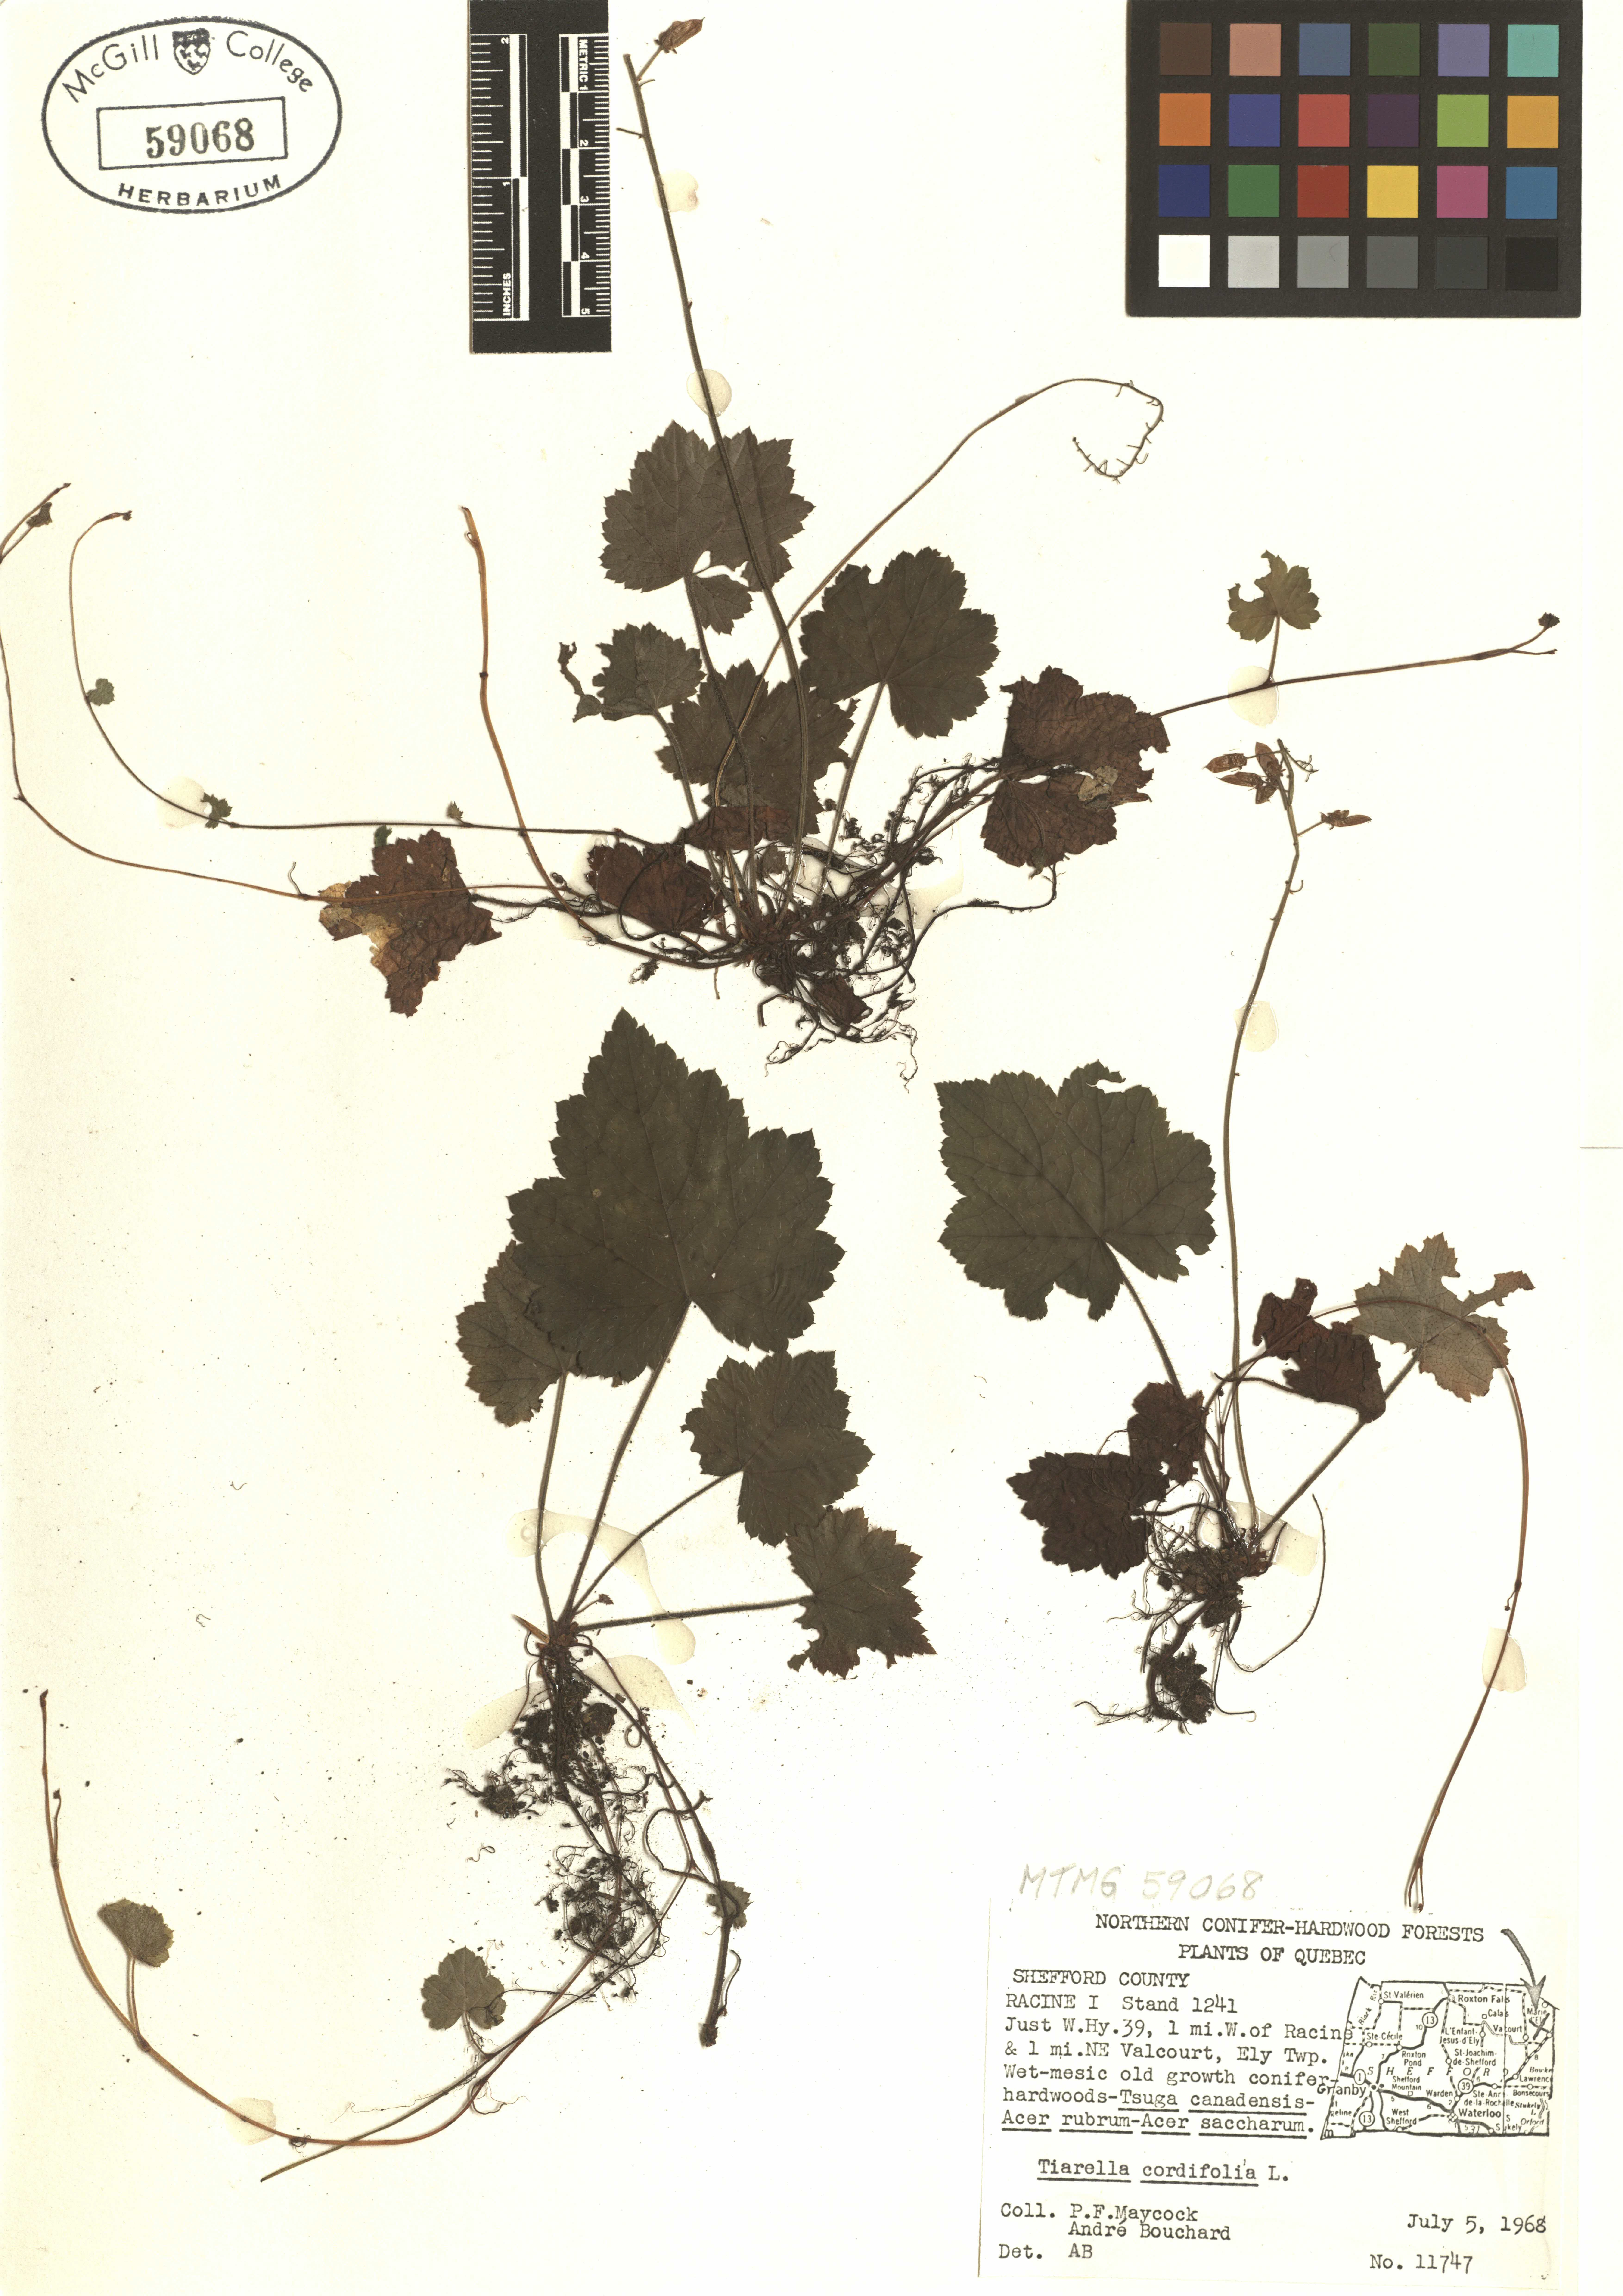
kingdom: Plantae
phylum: Tracheophyta
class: Magnoliopsida
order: Saxifragales
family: Saxifragaceae
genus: Tiarella
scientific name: Tiarella cordifolia
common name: Foamflower
